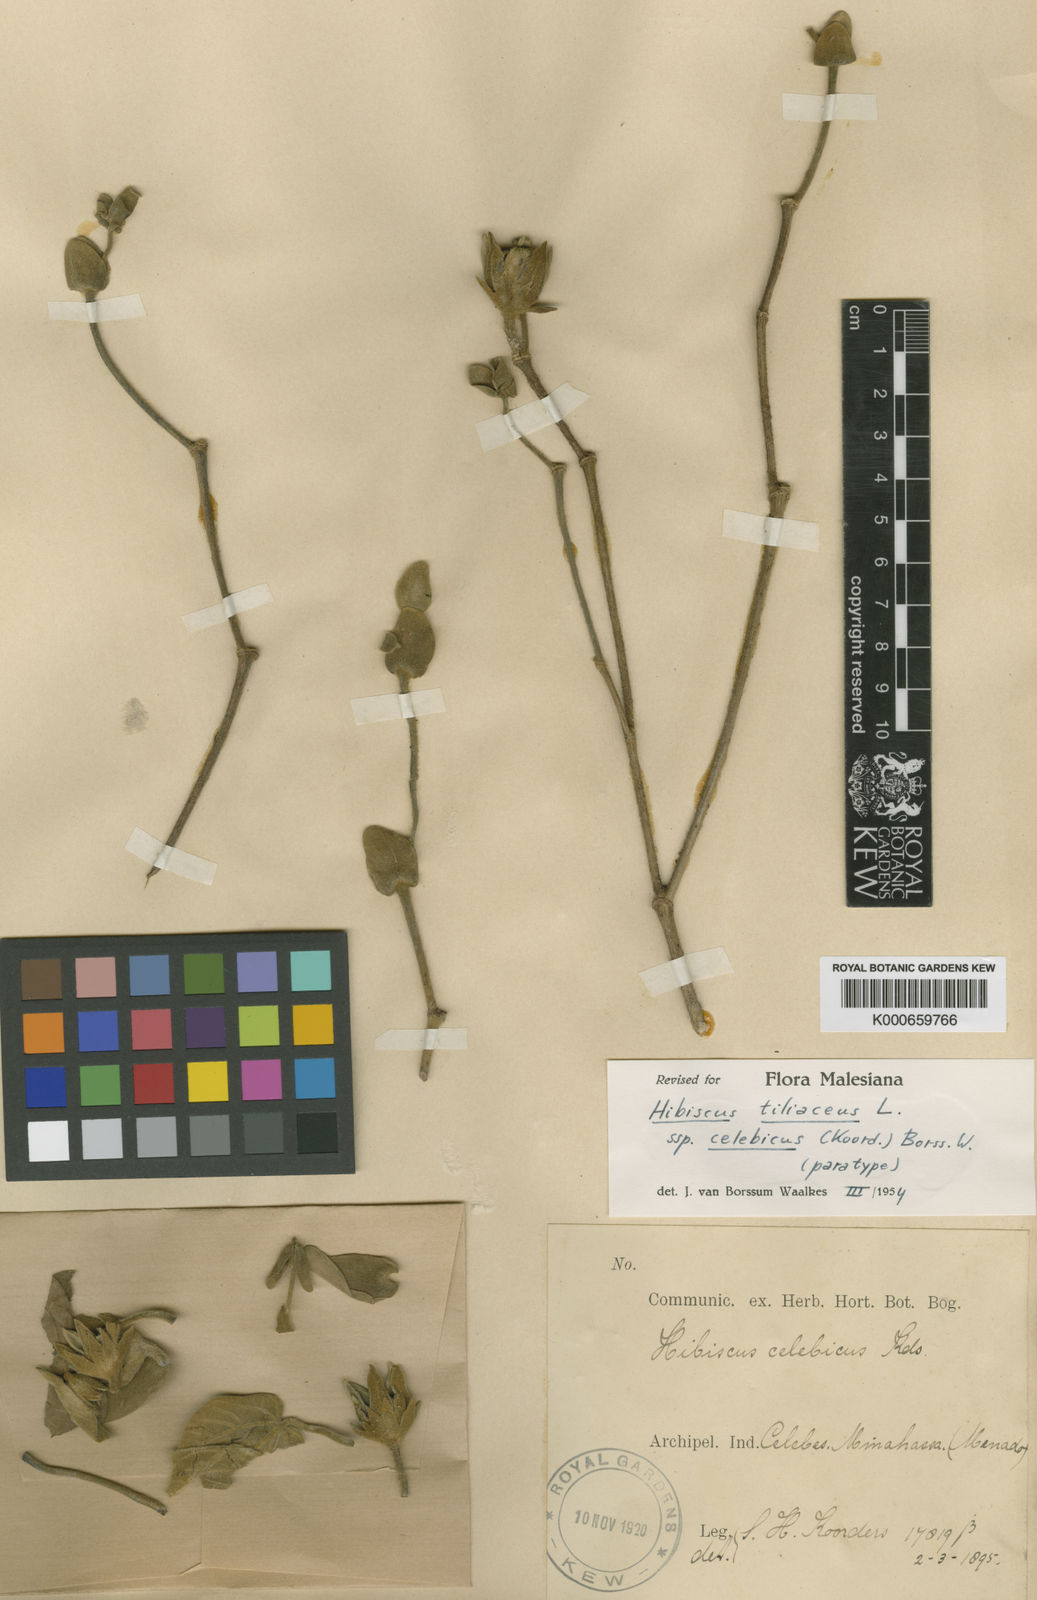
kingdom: Plantae
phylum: Tracheophyta
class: Magnoliopsida
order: Malvales
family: Malvaceae
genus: Talipariti
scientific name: Talipariti celebicum
